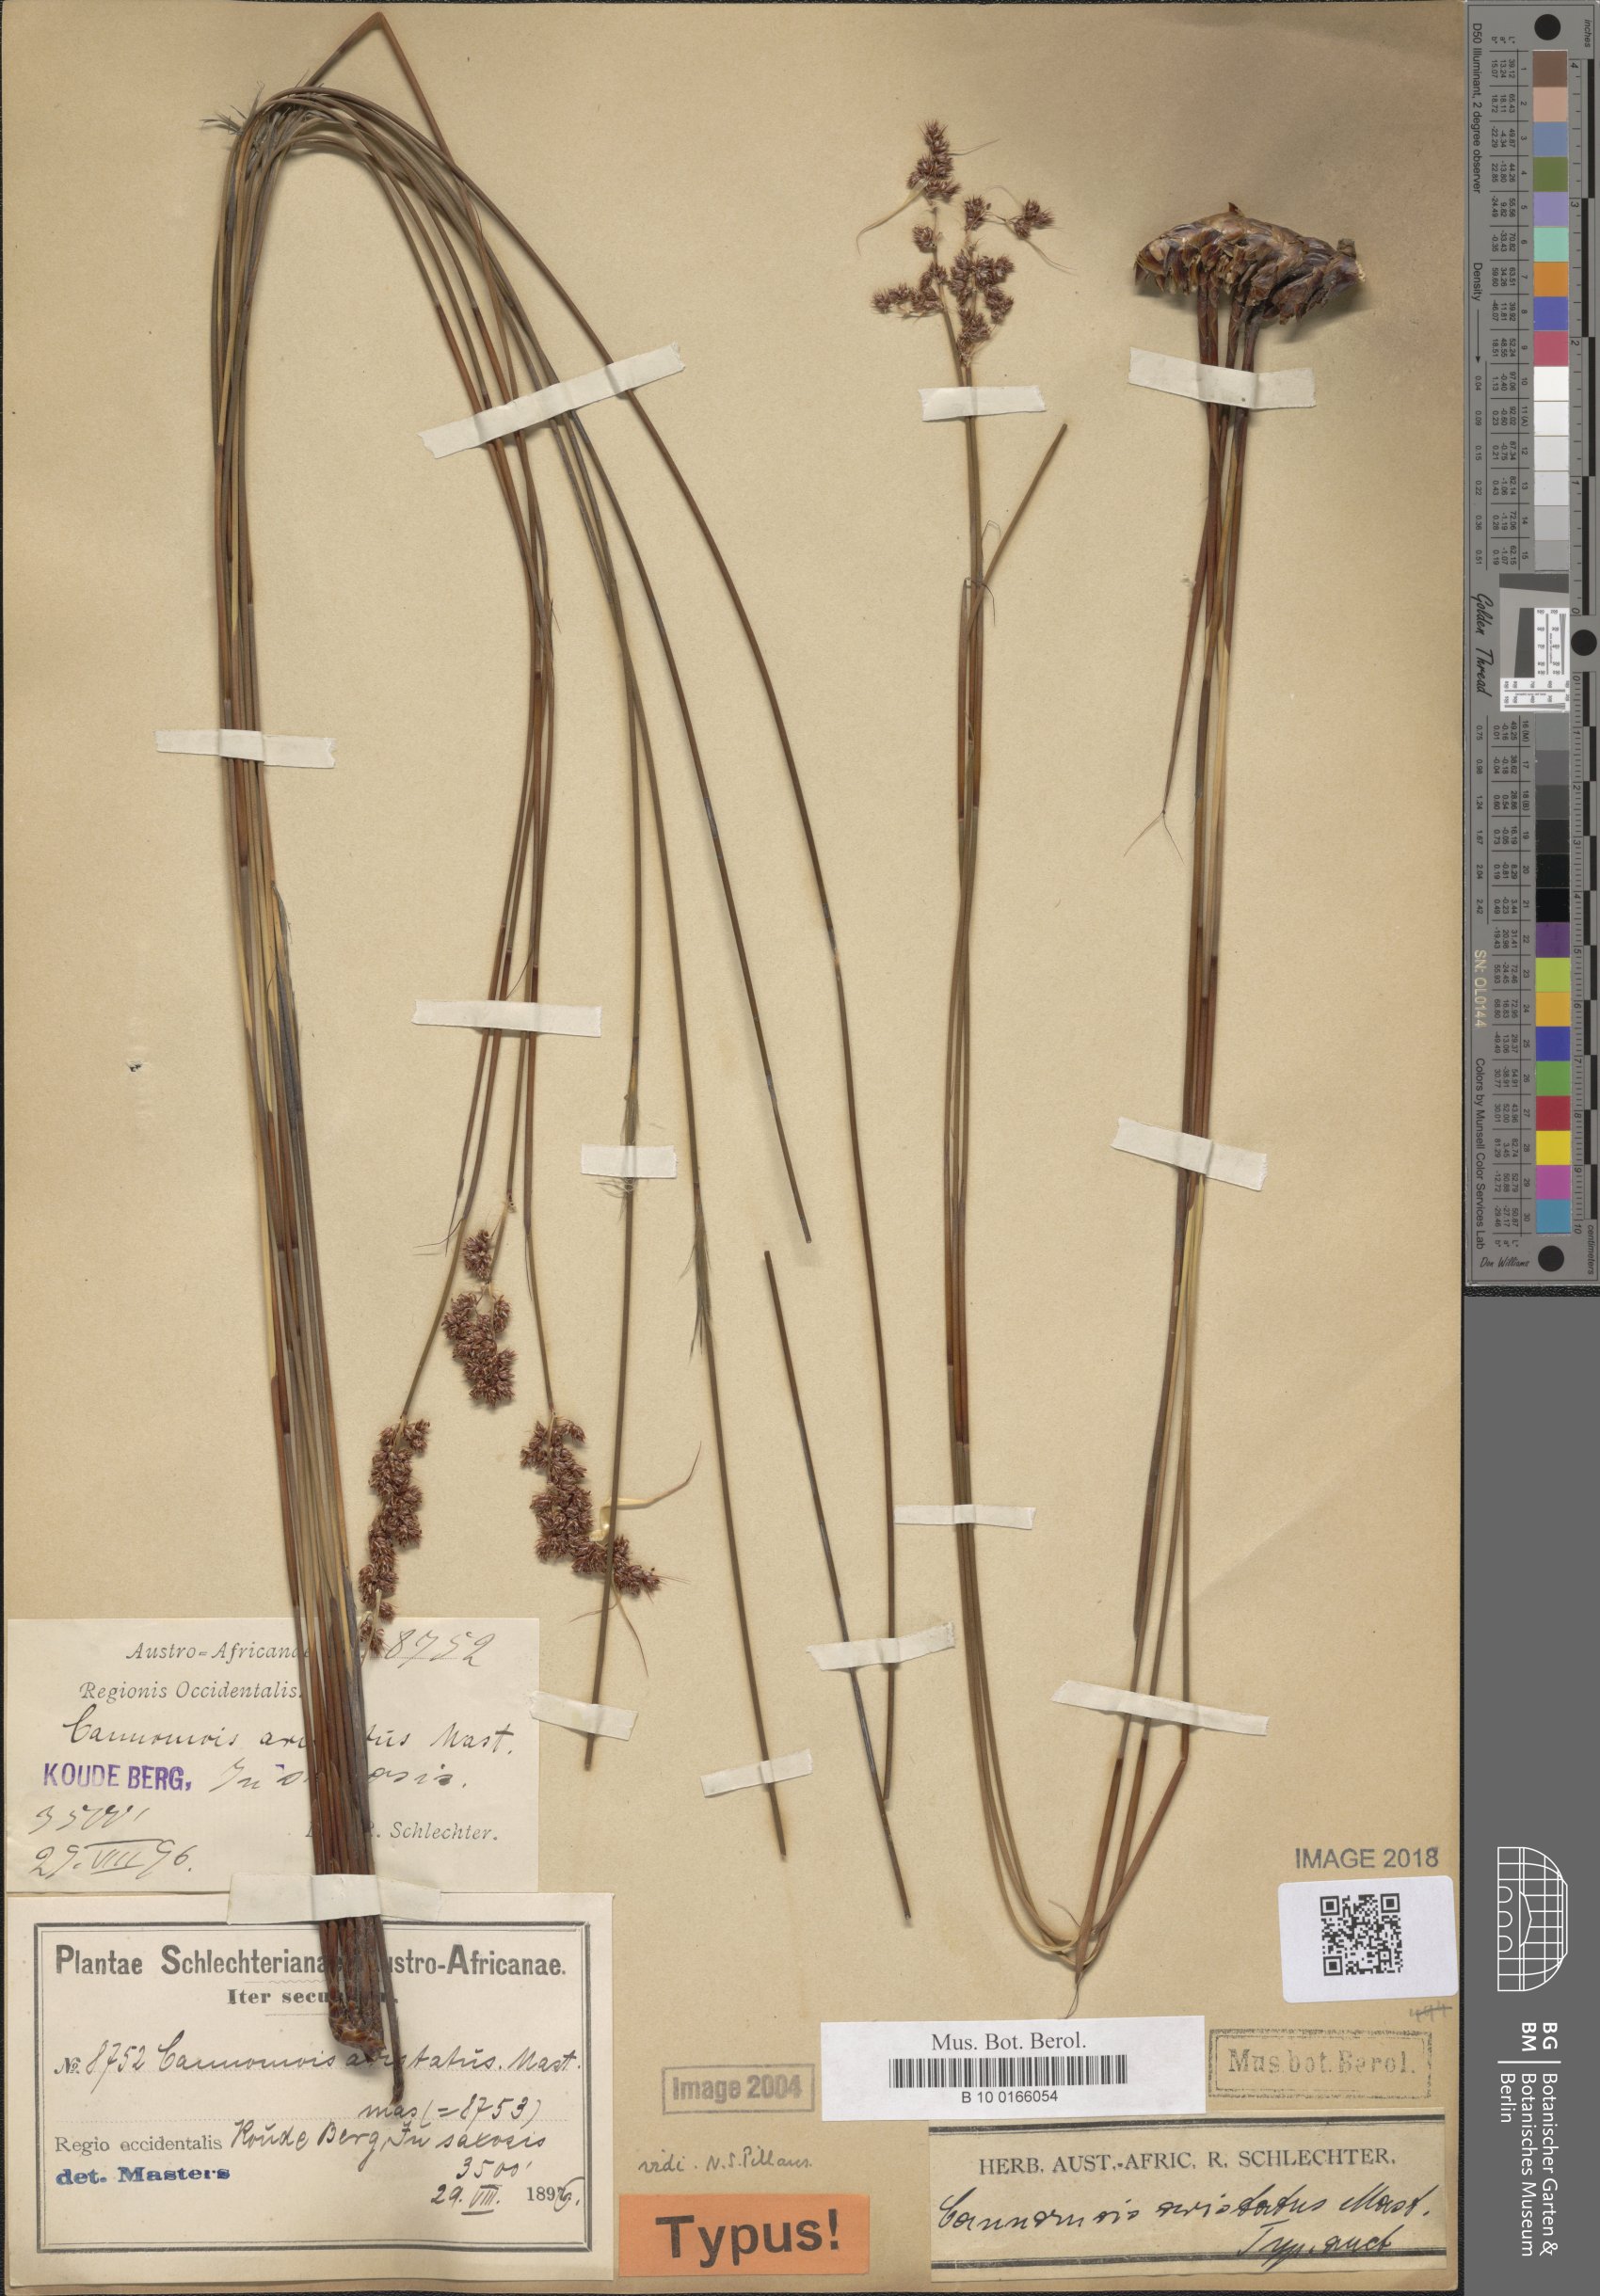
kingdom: Plantae
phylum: Tracheophyta
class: Liliopsida
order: Poales
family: Restionaceae
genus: Cannomois
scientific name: Cannomois aristata
